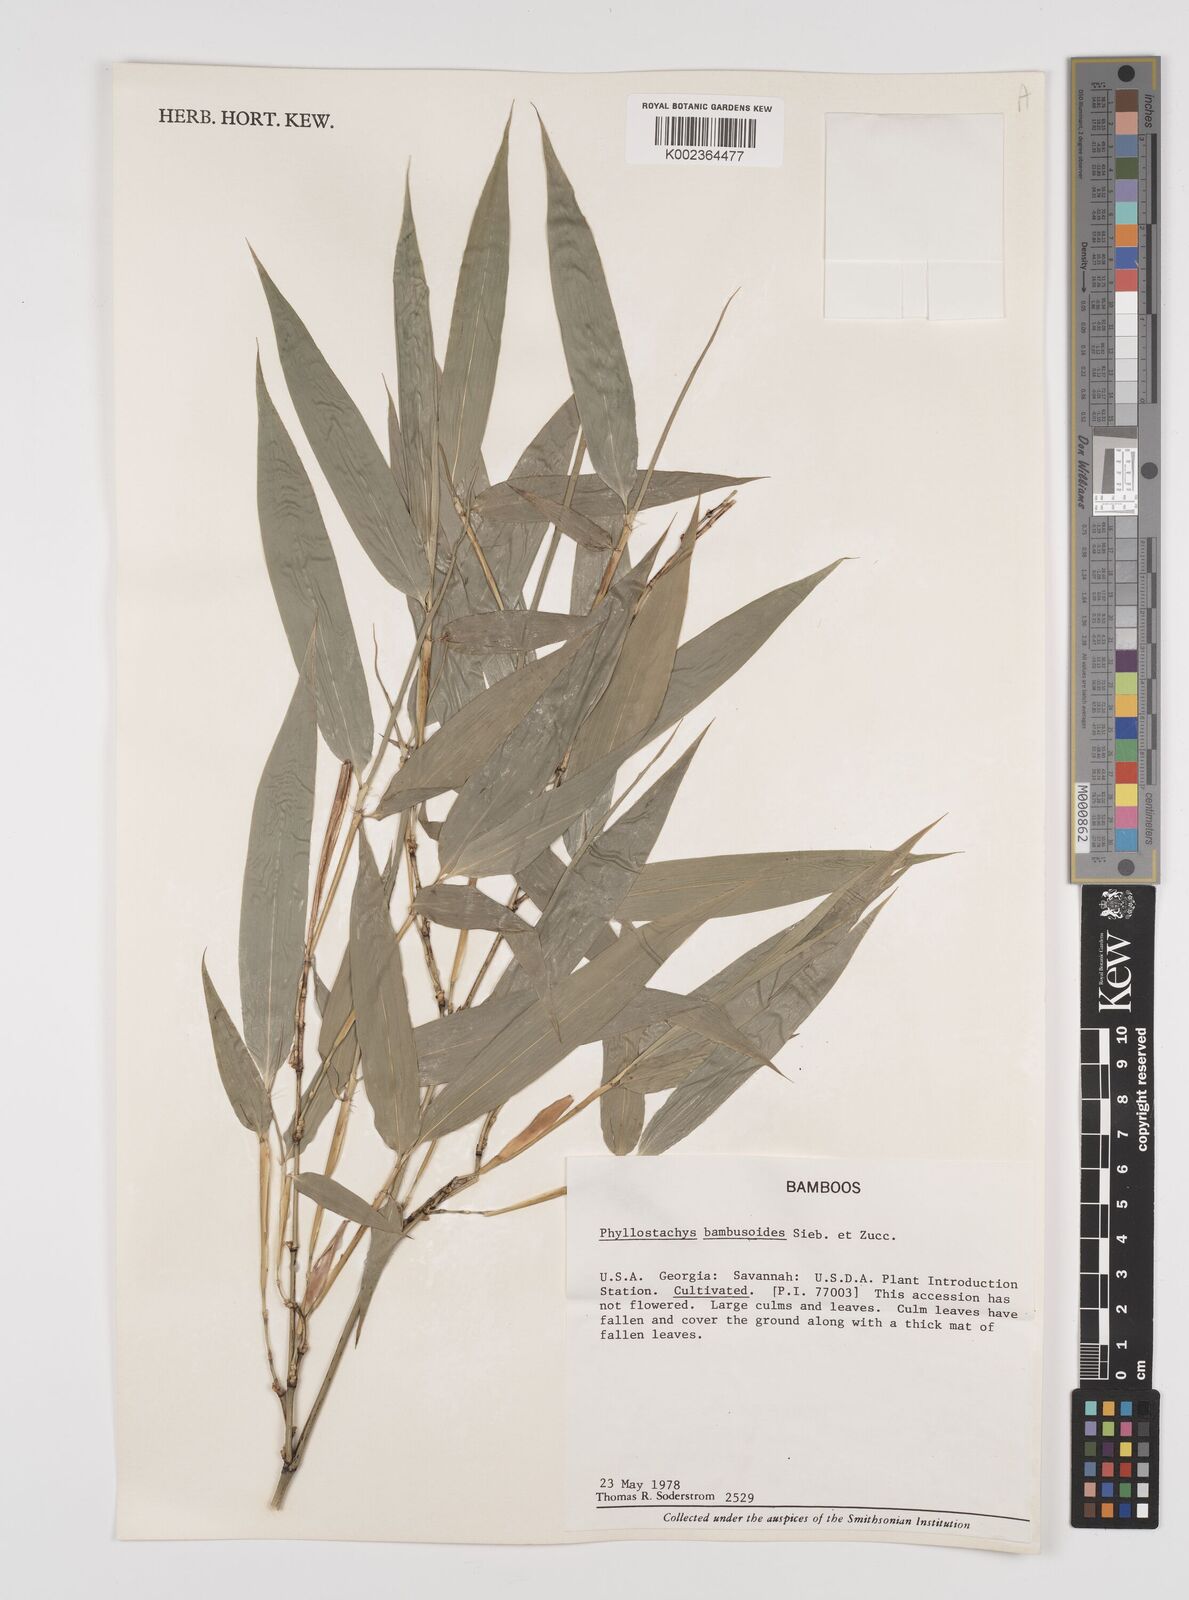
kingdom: Plantae
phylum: Tracheophyta
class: Liliopsida
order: Poales
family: Poaceae
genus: Phyllostachys
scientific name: Phyllostachys reticulata
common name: Bamboo
